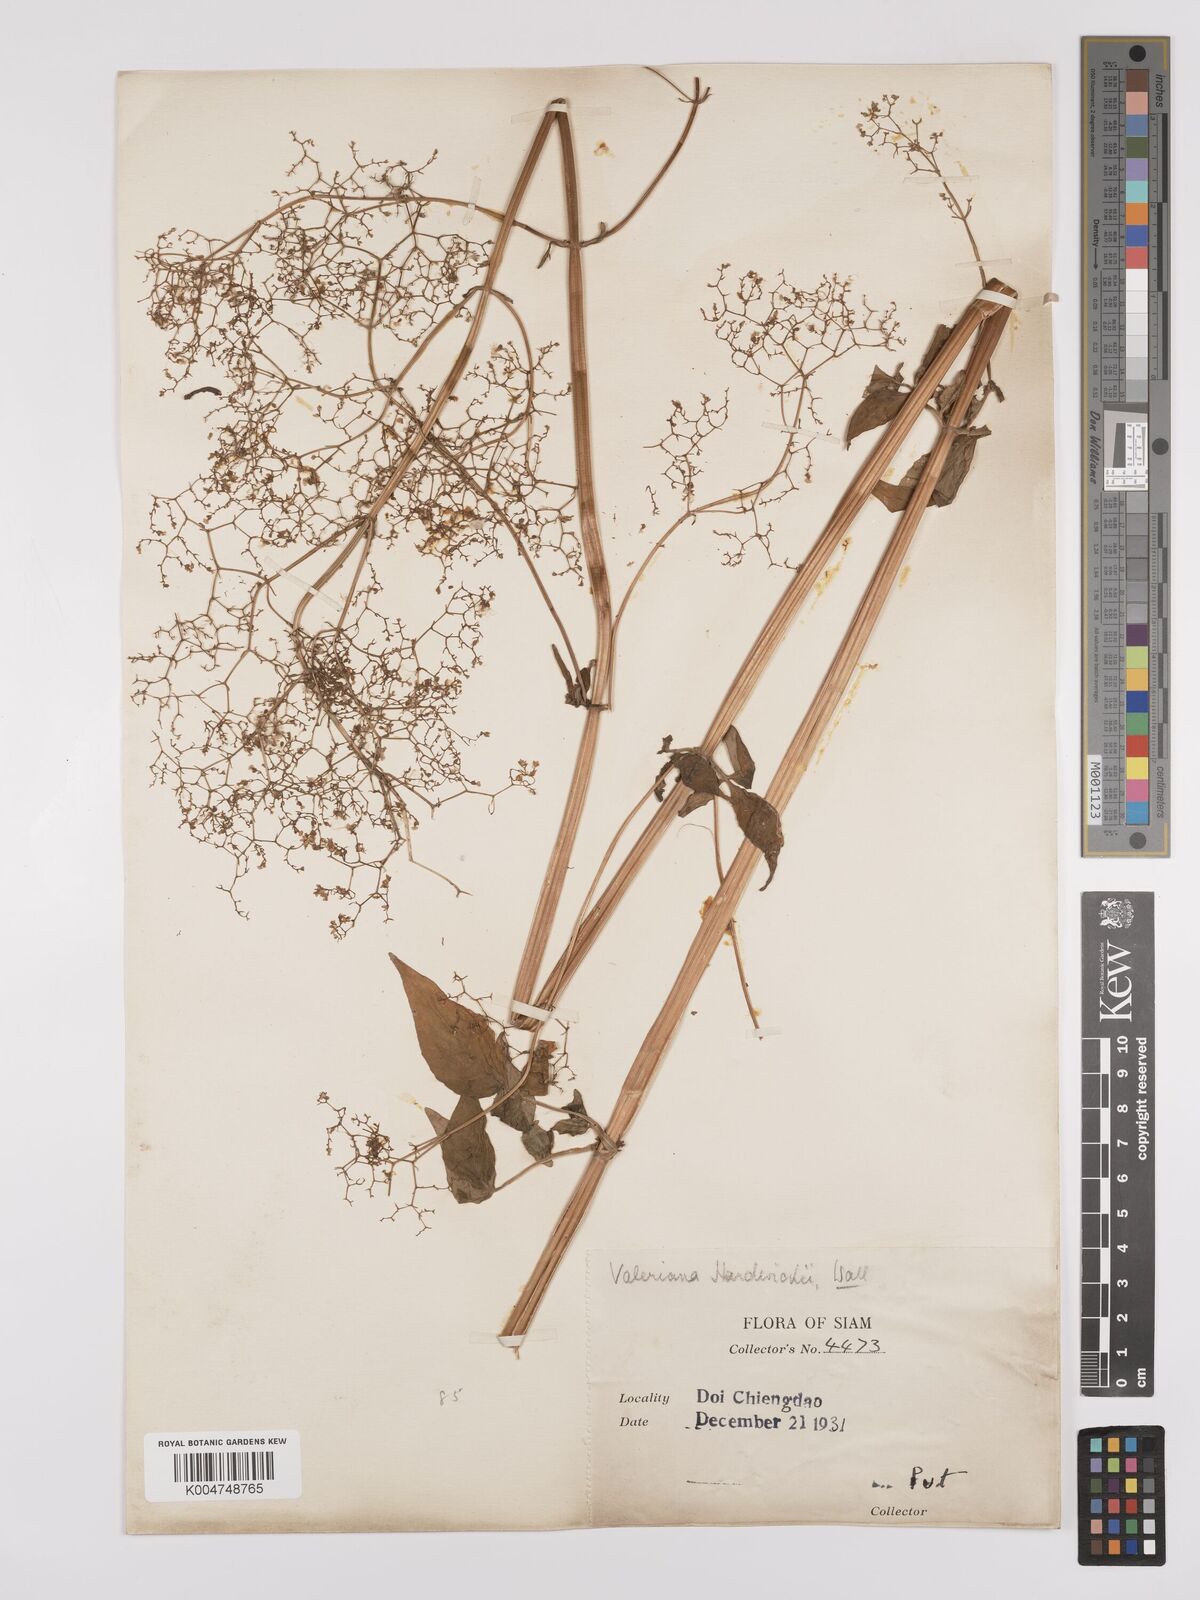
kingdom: Plantae
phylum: Tracheophyta
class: Magnoliopsida
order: Dipsacales
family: Caprifoliaceae
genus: Valeriana
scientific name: Valeriana hardwickei
